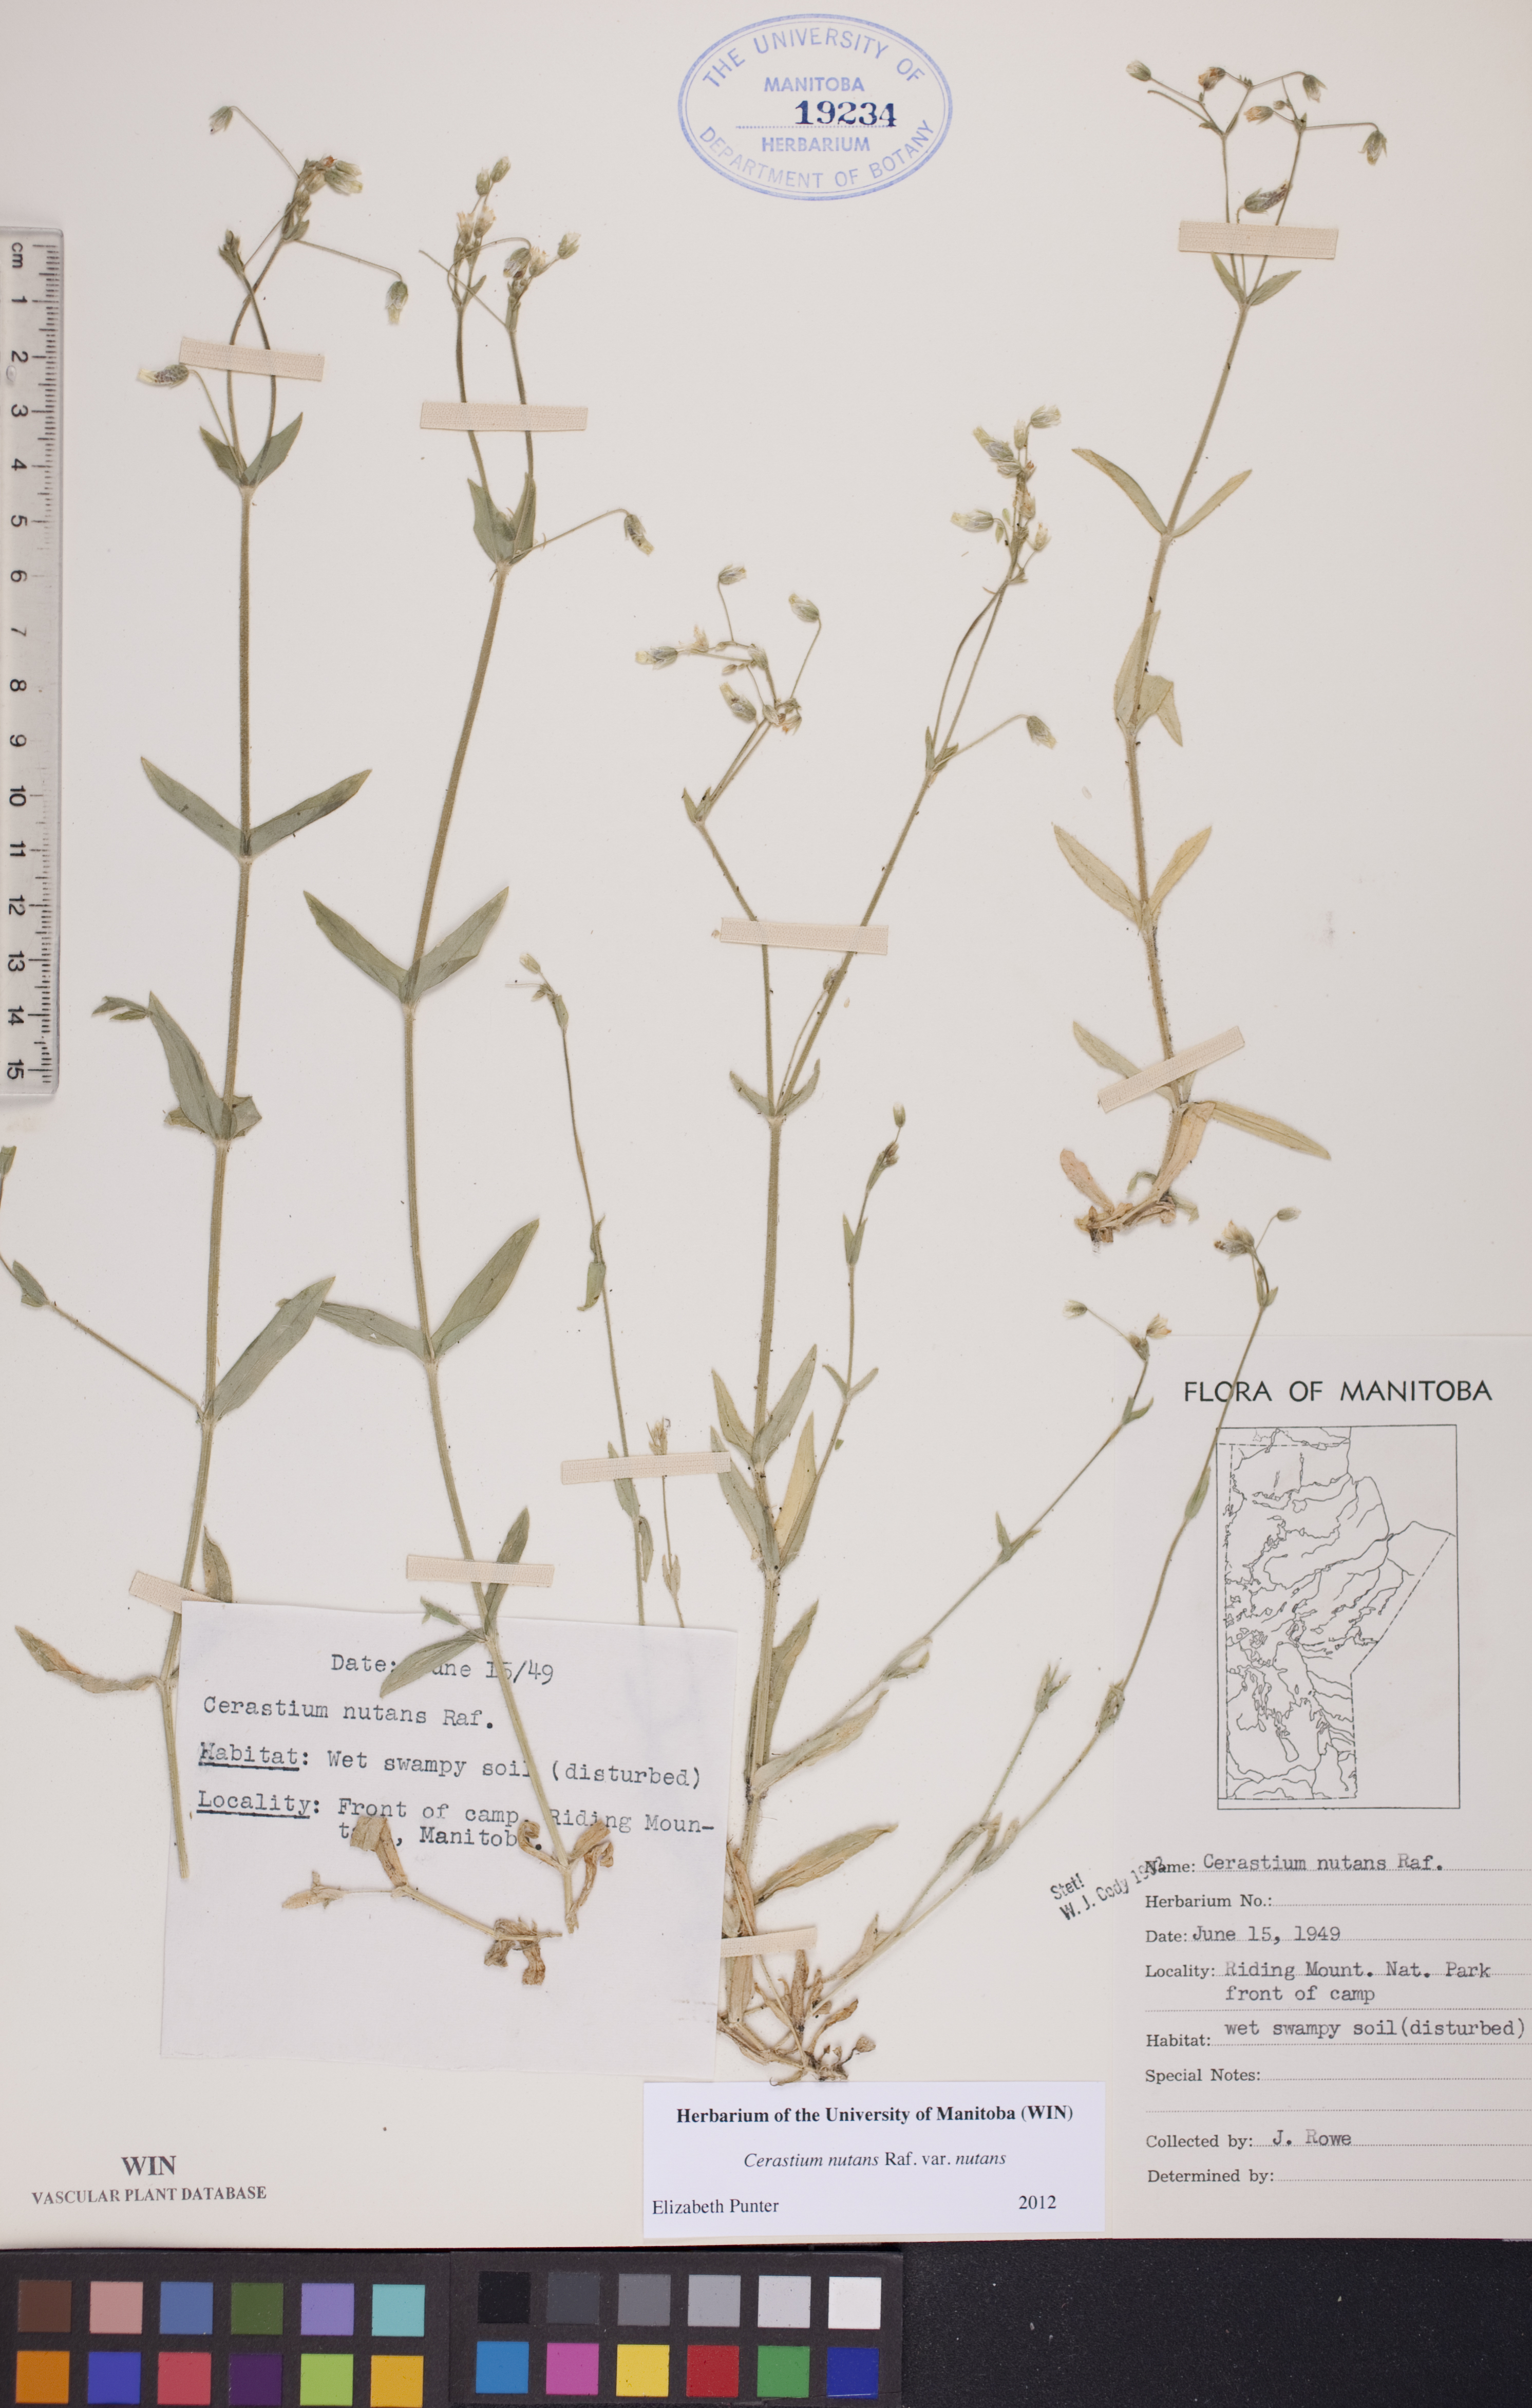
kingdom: Plantae
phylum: Tracheophyta
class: Magnoliopsida
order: Caryophyllales
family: Caryophyllaceae
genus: Cerastium
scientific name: Cerastium nutans
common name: Long-stalked chickweed
